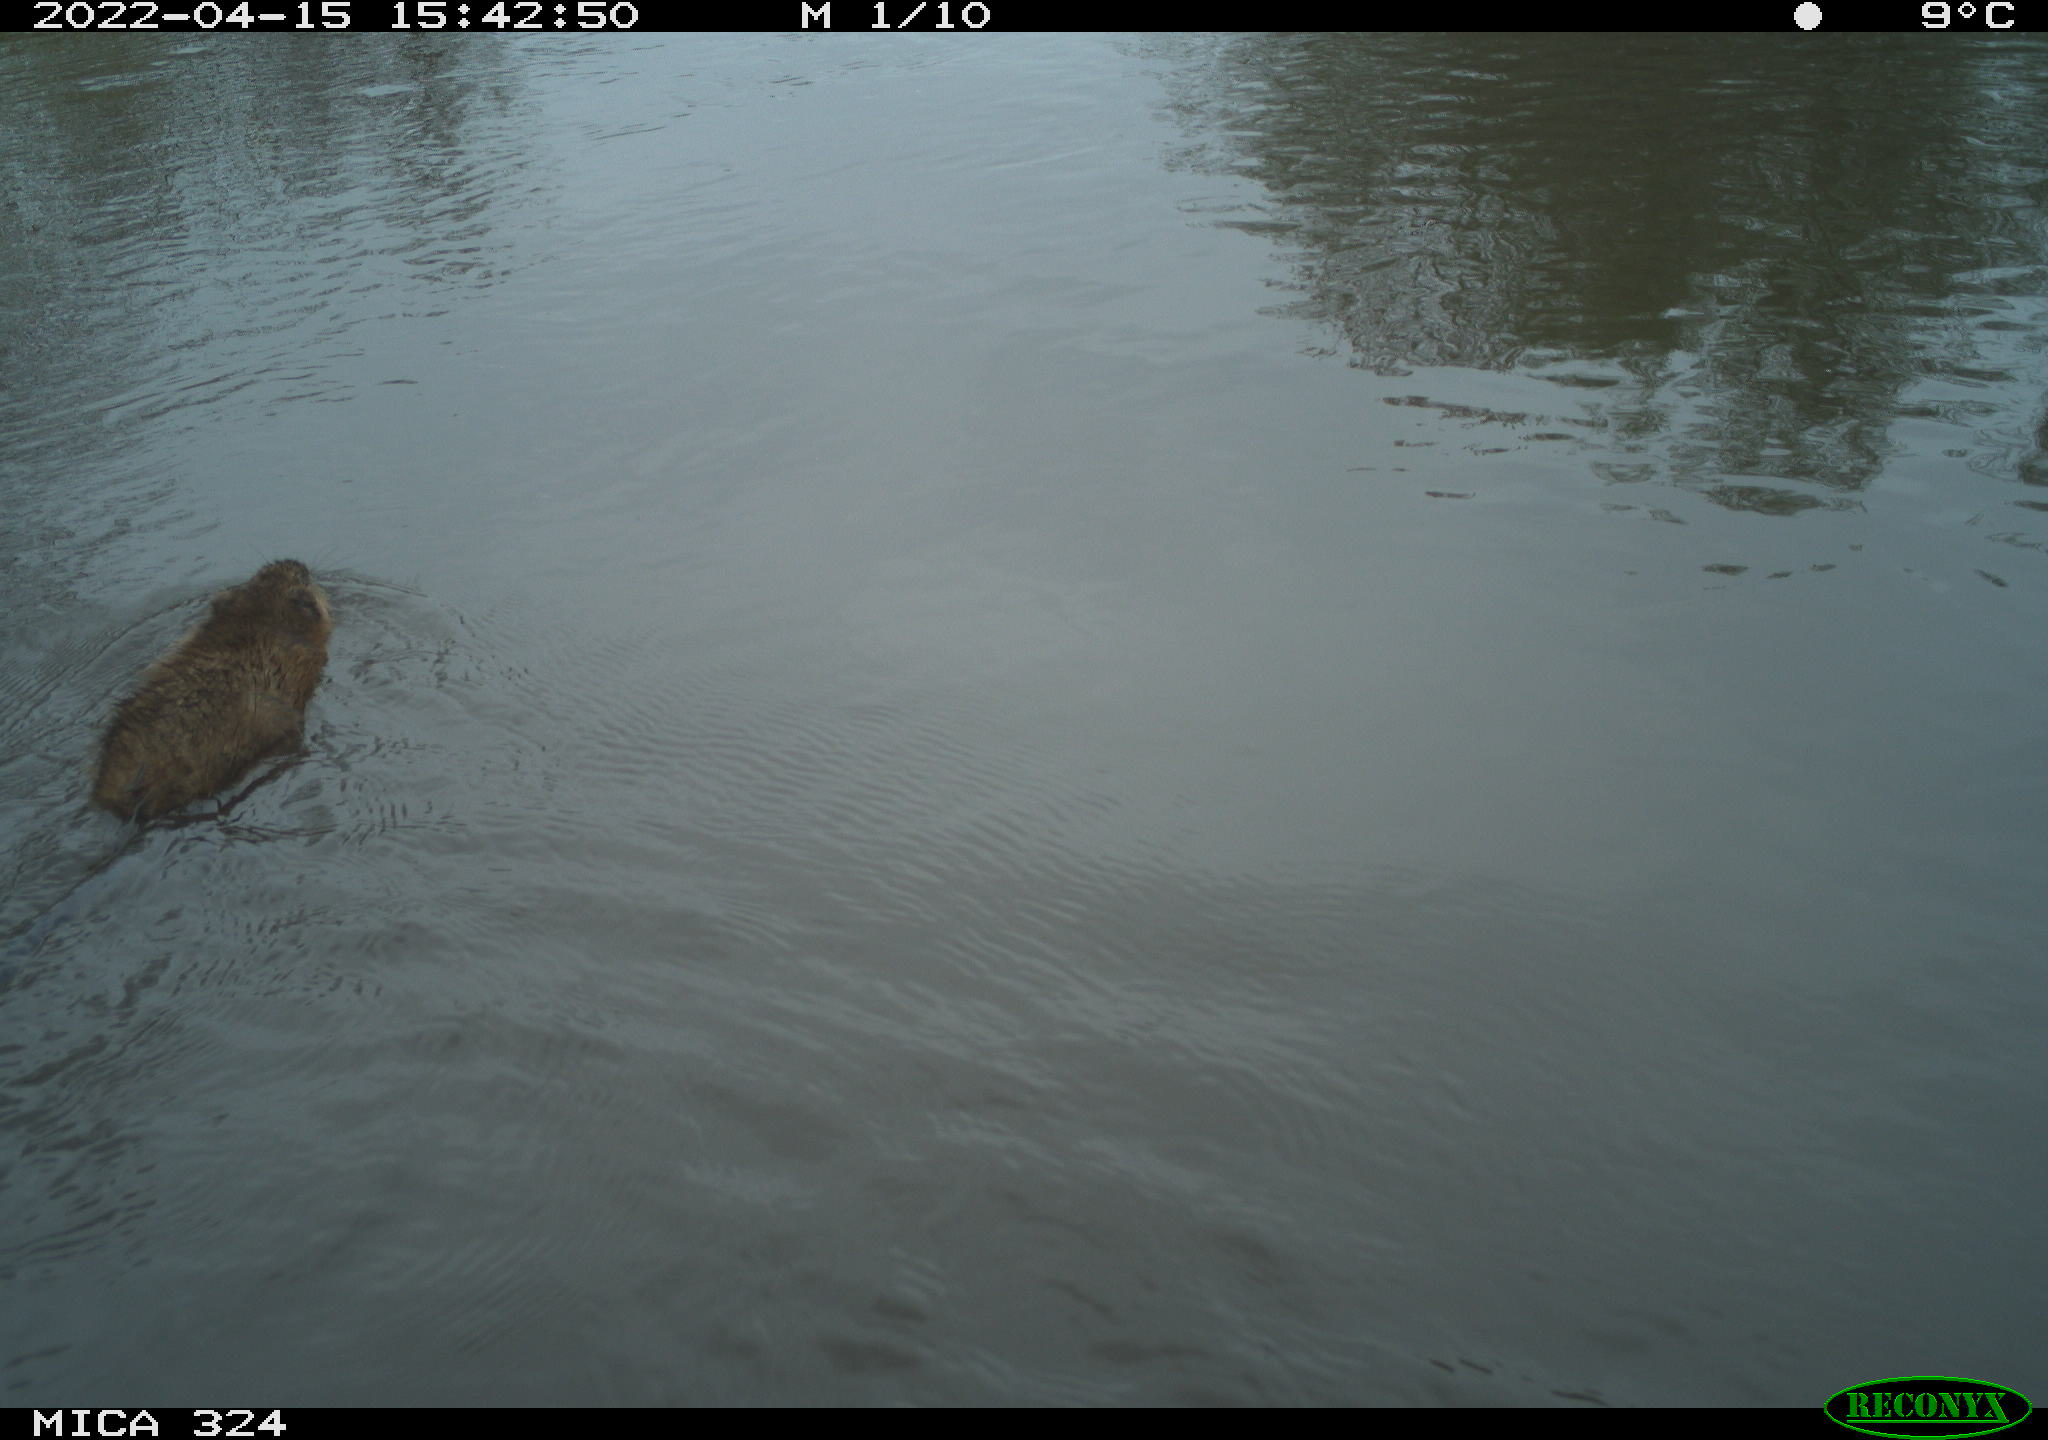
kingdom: Animalia
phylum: Chordata
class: Mammalia
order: Rodentia
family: Cricetidae
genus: Ondatra
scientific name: Ondatra zibethicus
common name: Muskrat
